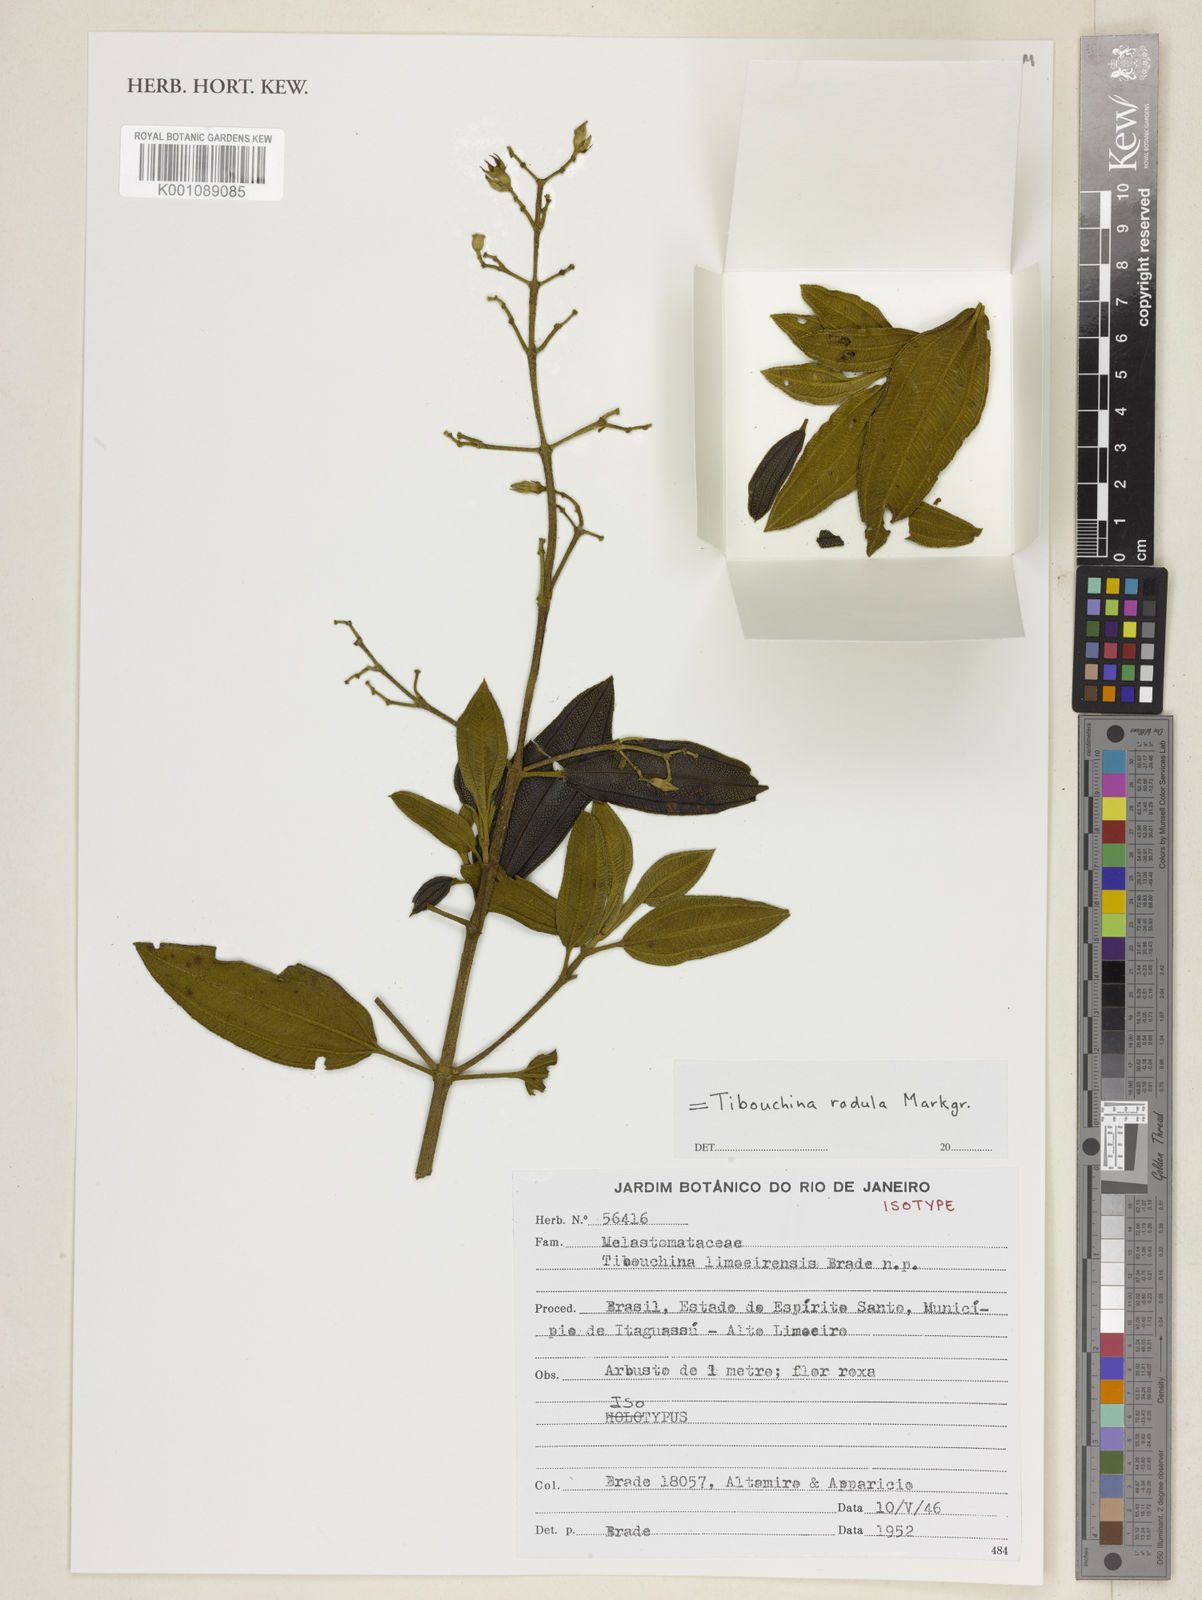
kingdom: Plantae
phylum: Tracheophyta
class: Magnoliopsida
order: Myrtales
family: Melastomataceae
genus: Pleroma
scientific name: Pleroma radula
